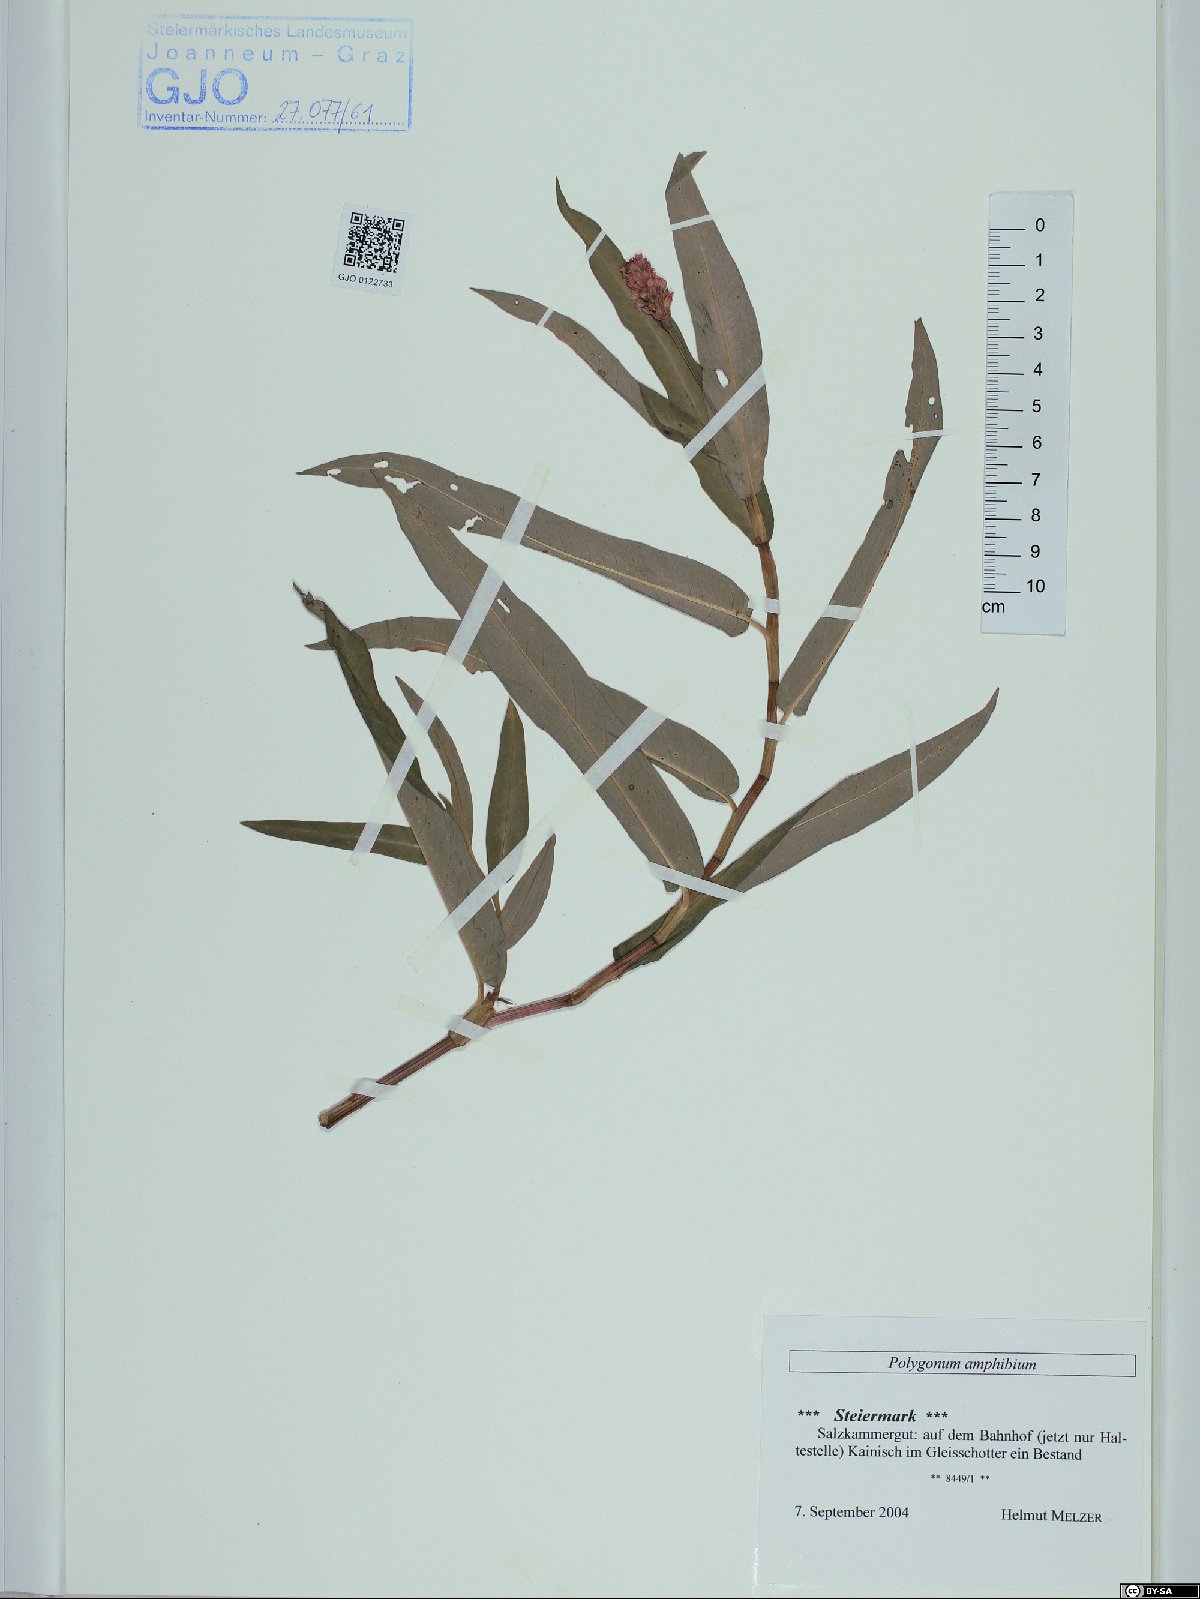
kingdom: Plantae
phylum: Tracheophyta
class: Magnoliopsida
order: Caryophyllales
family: Polygonaceae
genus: Persicaria
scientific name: Persicaria amphibia
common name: Amphibious bistort
